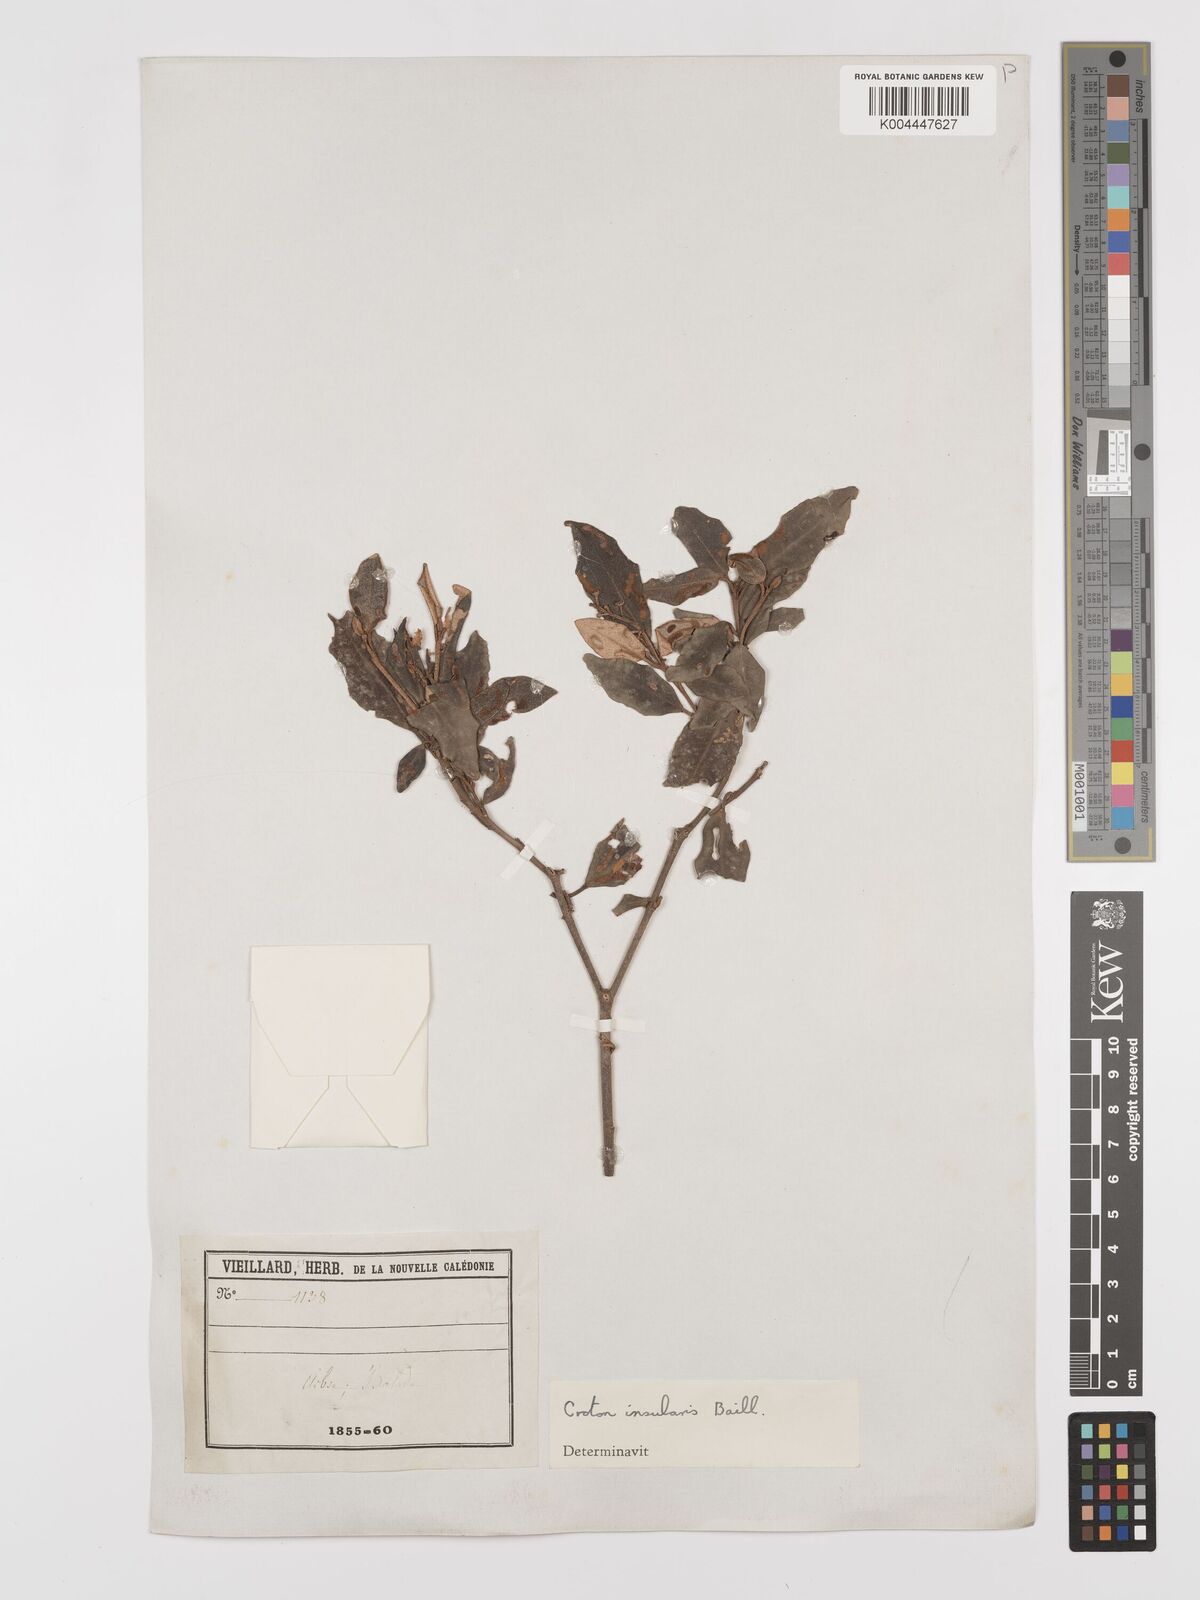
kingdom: Plantae
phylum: Tracheophyta
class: Magnoliopsida
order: Malpighiales
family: Euphorbiaceae
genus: Croton
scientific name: Croton insularis
